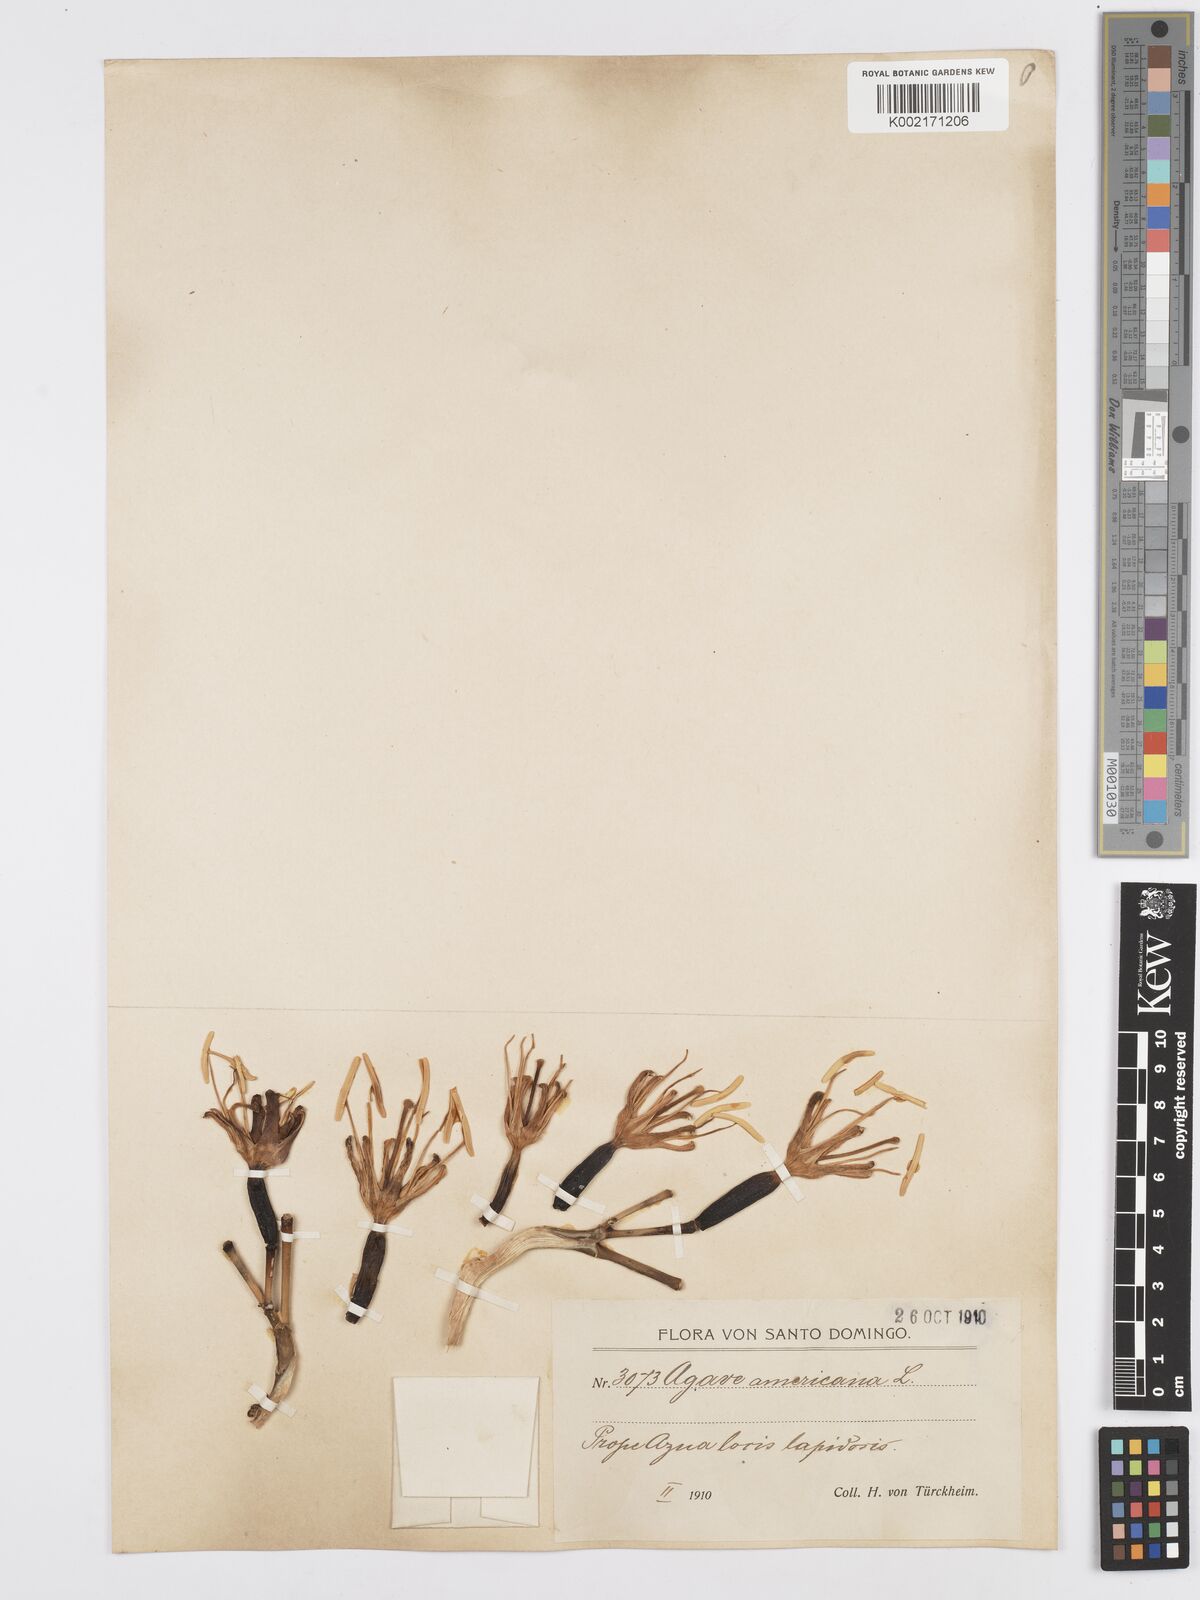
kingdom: Plantae
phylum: Tracheophyta
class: Liliopsida
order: Asparagales
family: Asparagaceae
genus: Agave
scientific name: Agave caribaeicola
